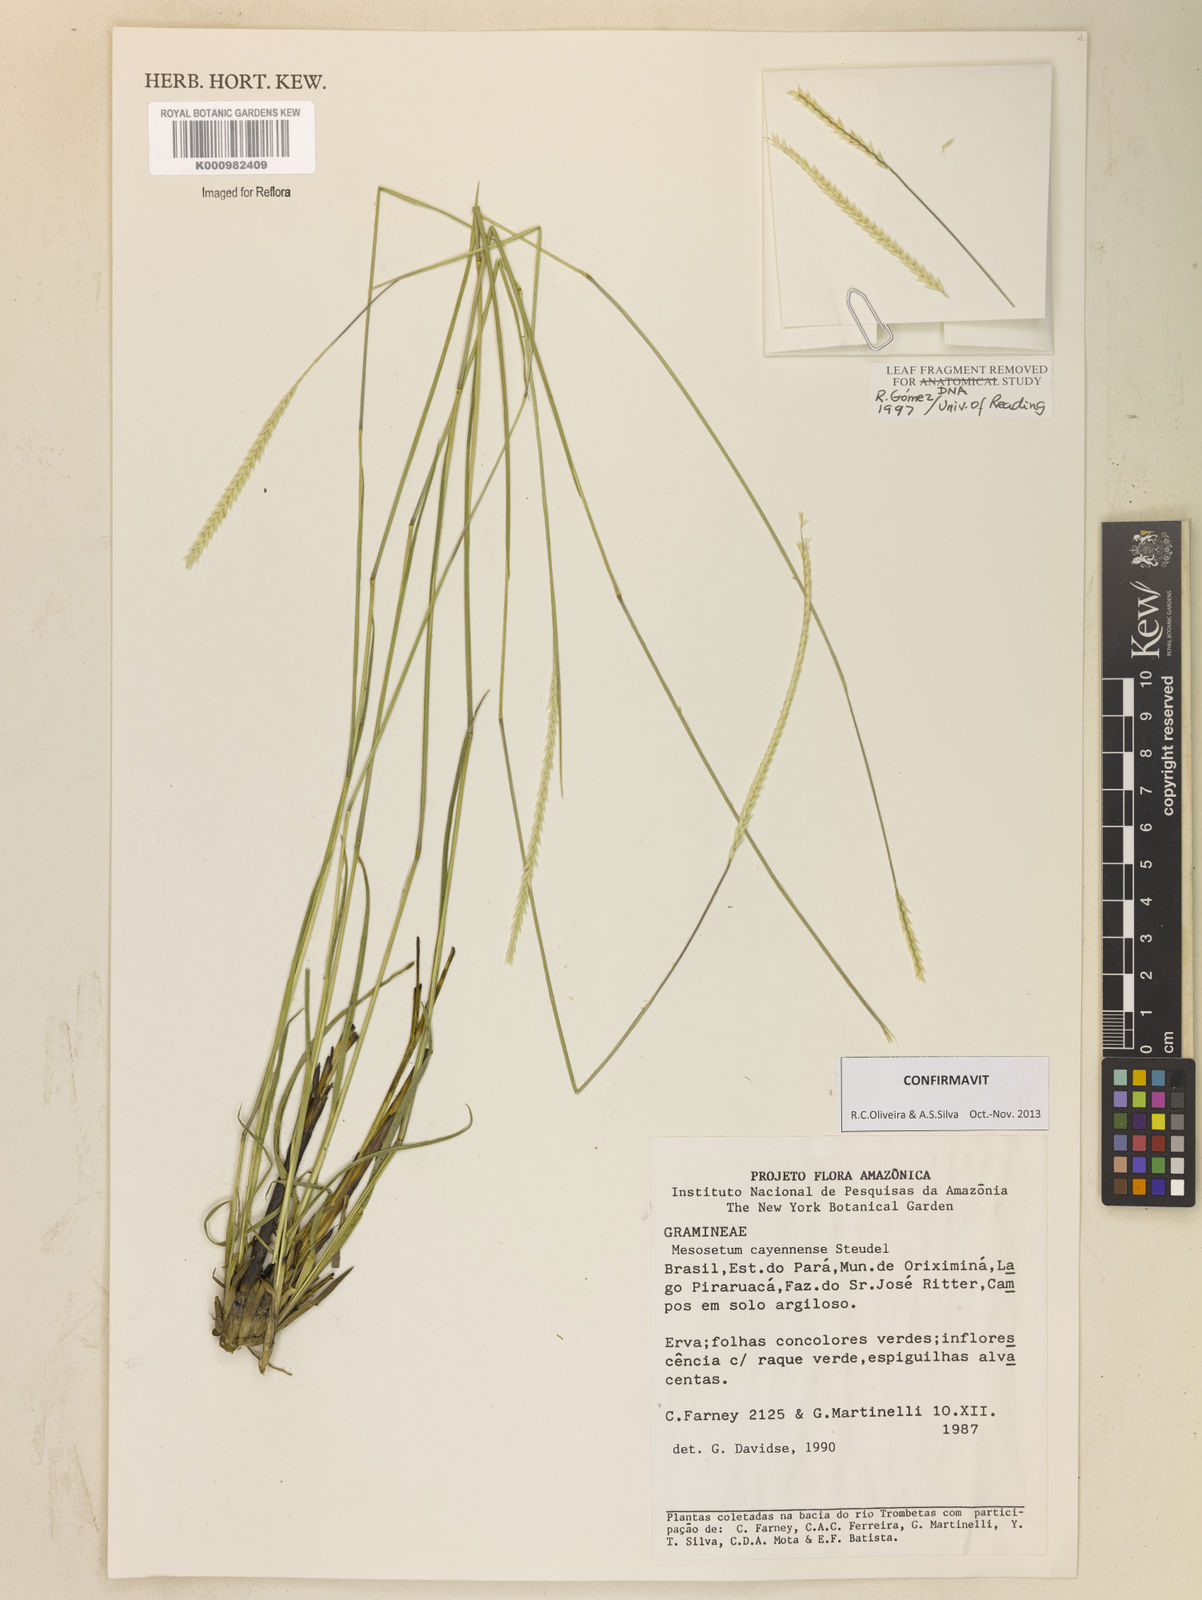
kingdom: Plantae
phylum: Tracheophyta
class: Liliopsida
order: Poales
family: Poaceae
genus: Mesosetum
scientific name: Mesosetum cayennense
